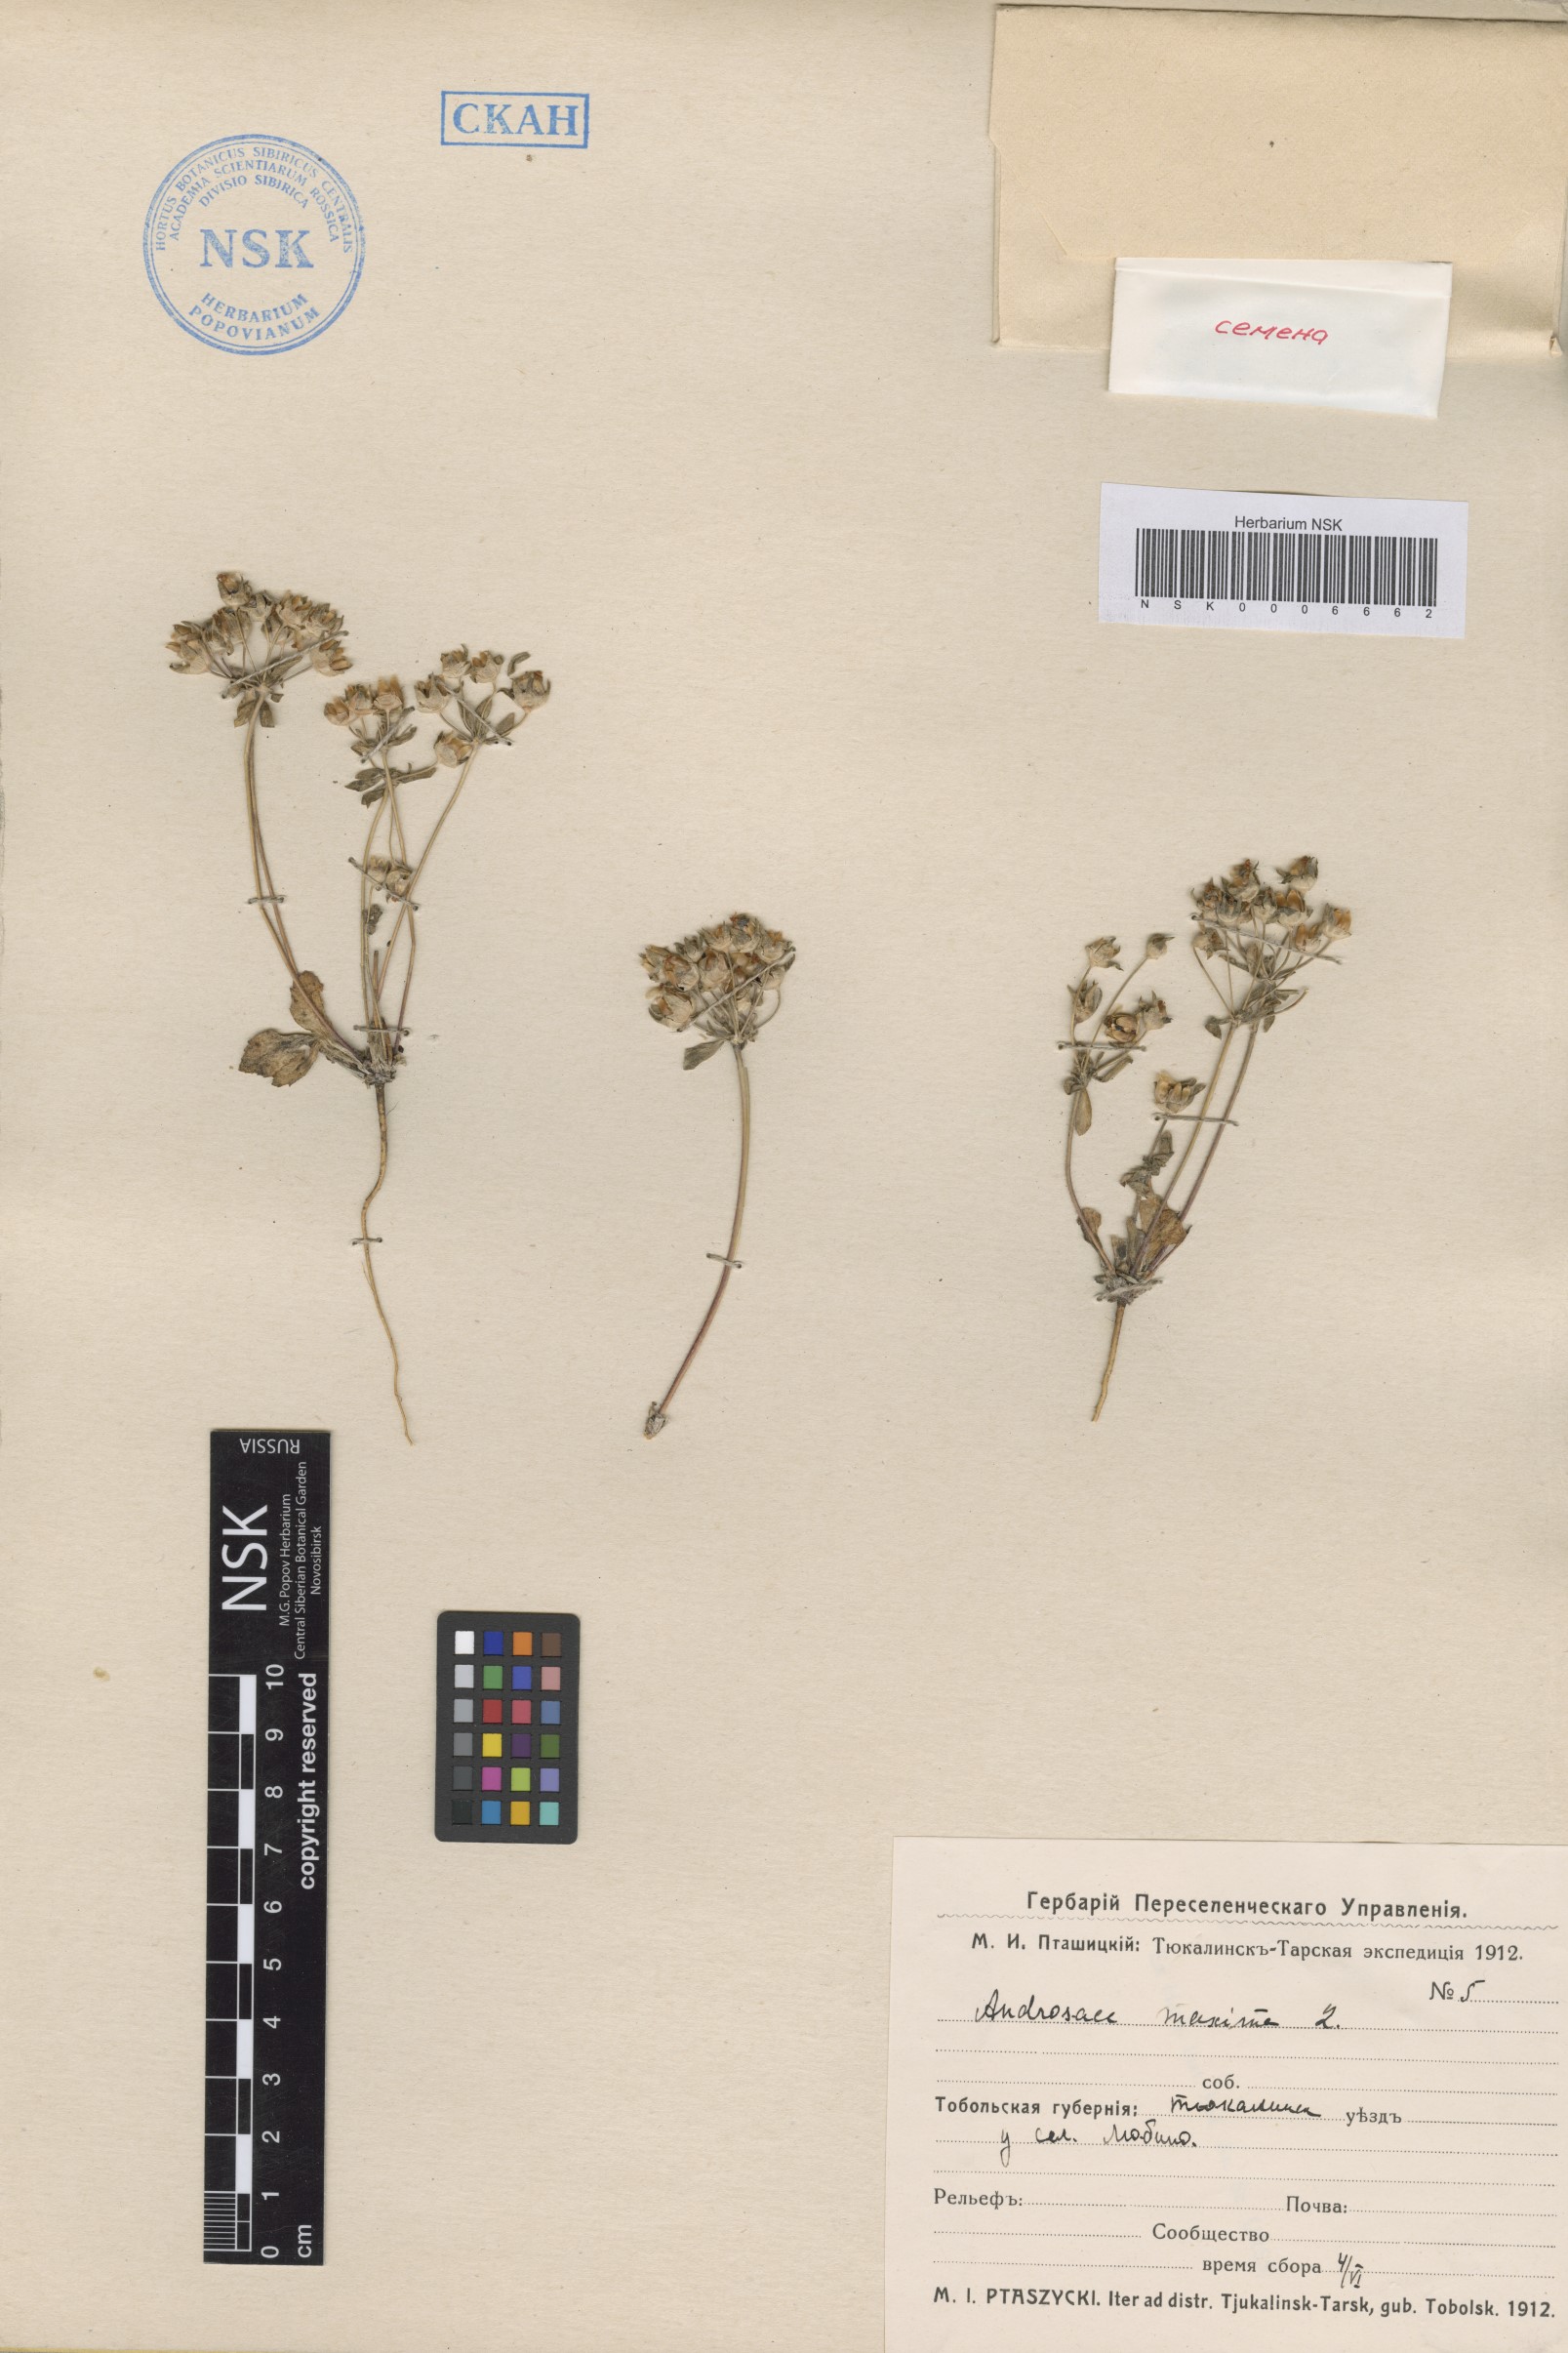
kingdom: Plantae
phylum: Tracheophyta
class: Magnoliopsida
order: Ericales
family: Primulaceae
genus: Androsace
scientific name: Androsace maxima
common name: Annual androsace
